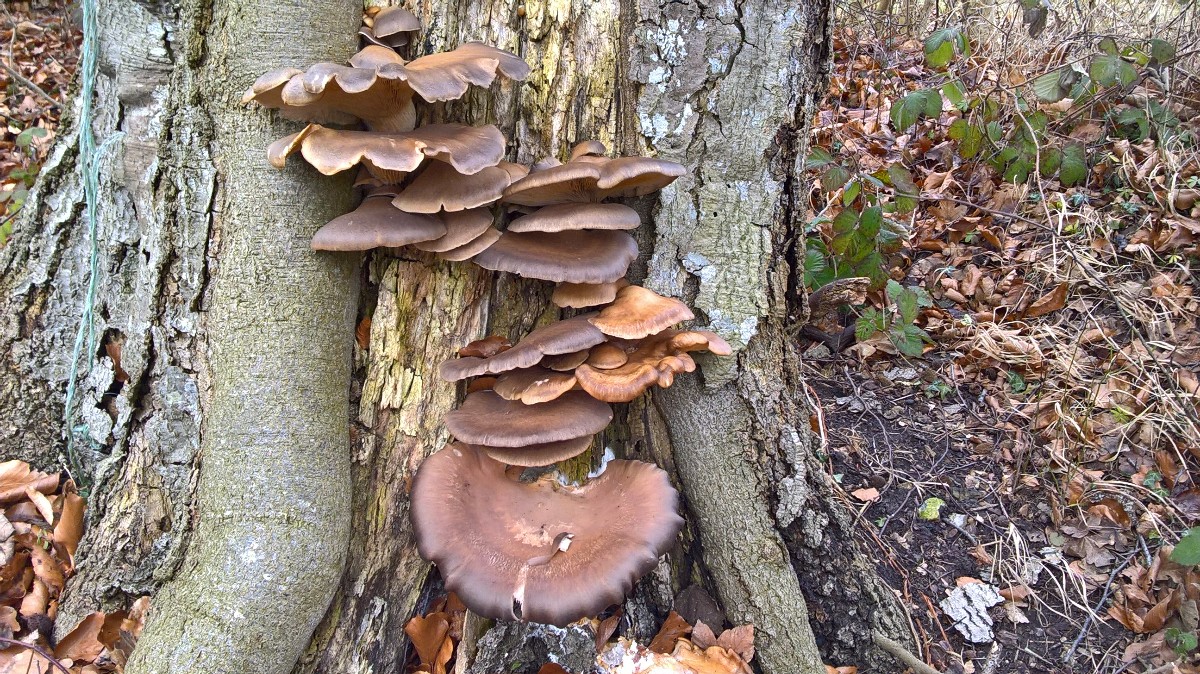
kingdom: Fungi
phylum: Basidiomycota
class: Agaricomycetes
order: Agaricales
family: Pleurotaceae
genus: Pleurotus
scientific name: Pleurotus ostreatus
